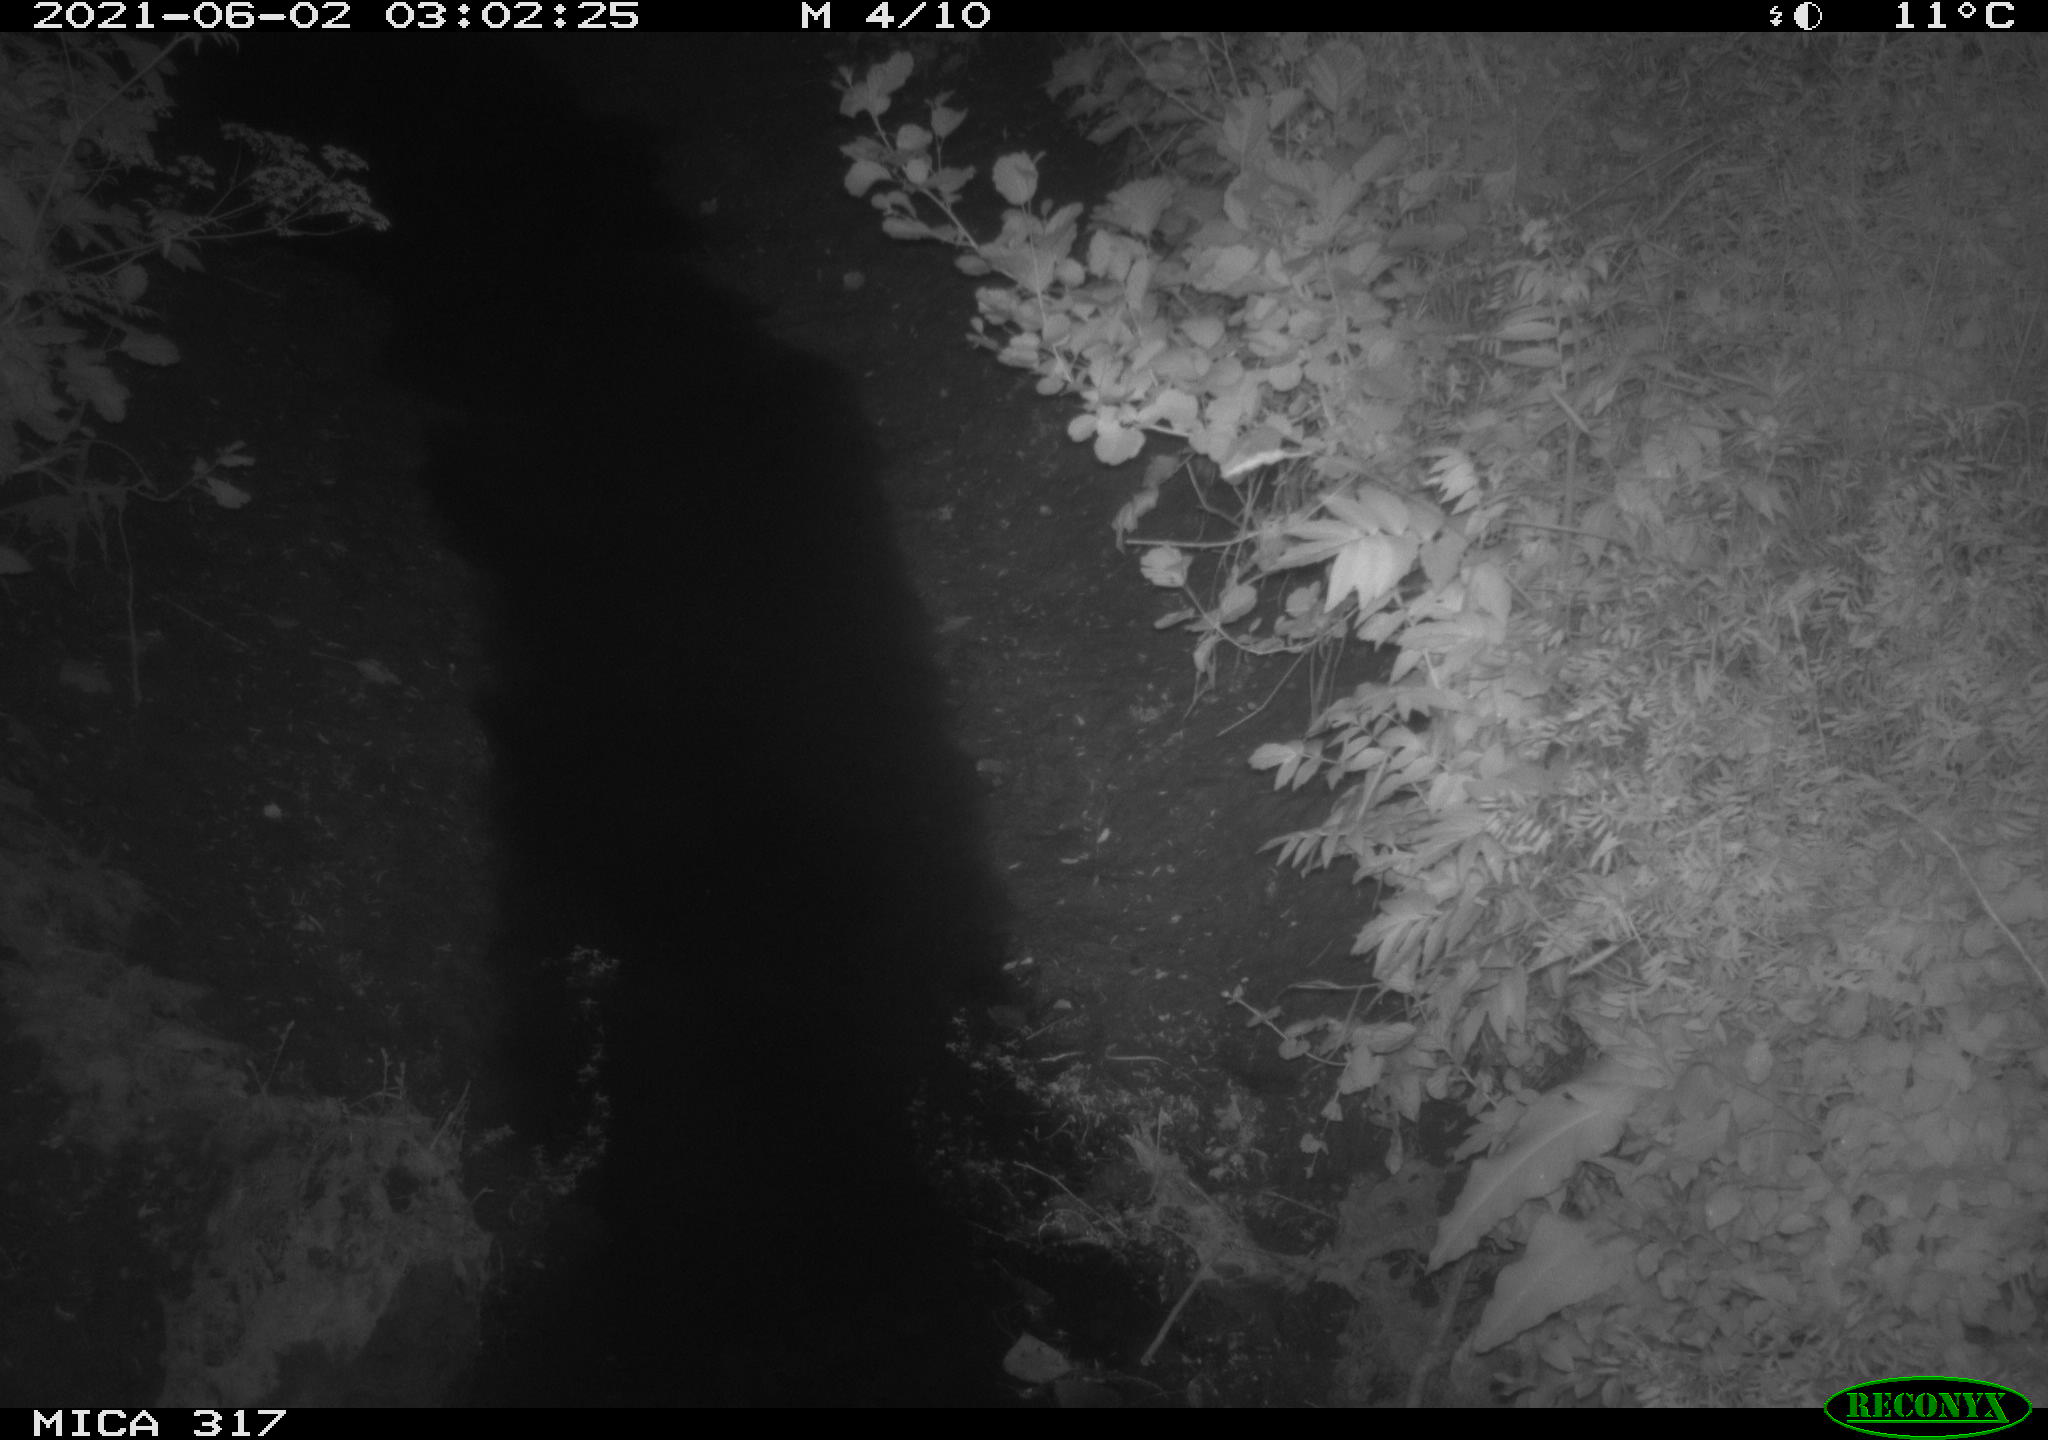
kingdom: Animalia
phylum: Chordata
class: Mammalia
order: Carnivora
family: Mustelidae
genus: Martes
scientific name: Martes foina
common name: Beech marten
